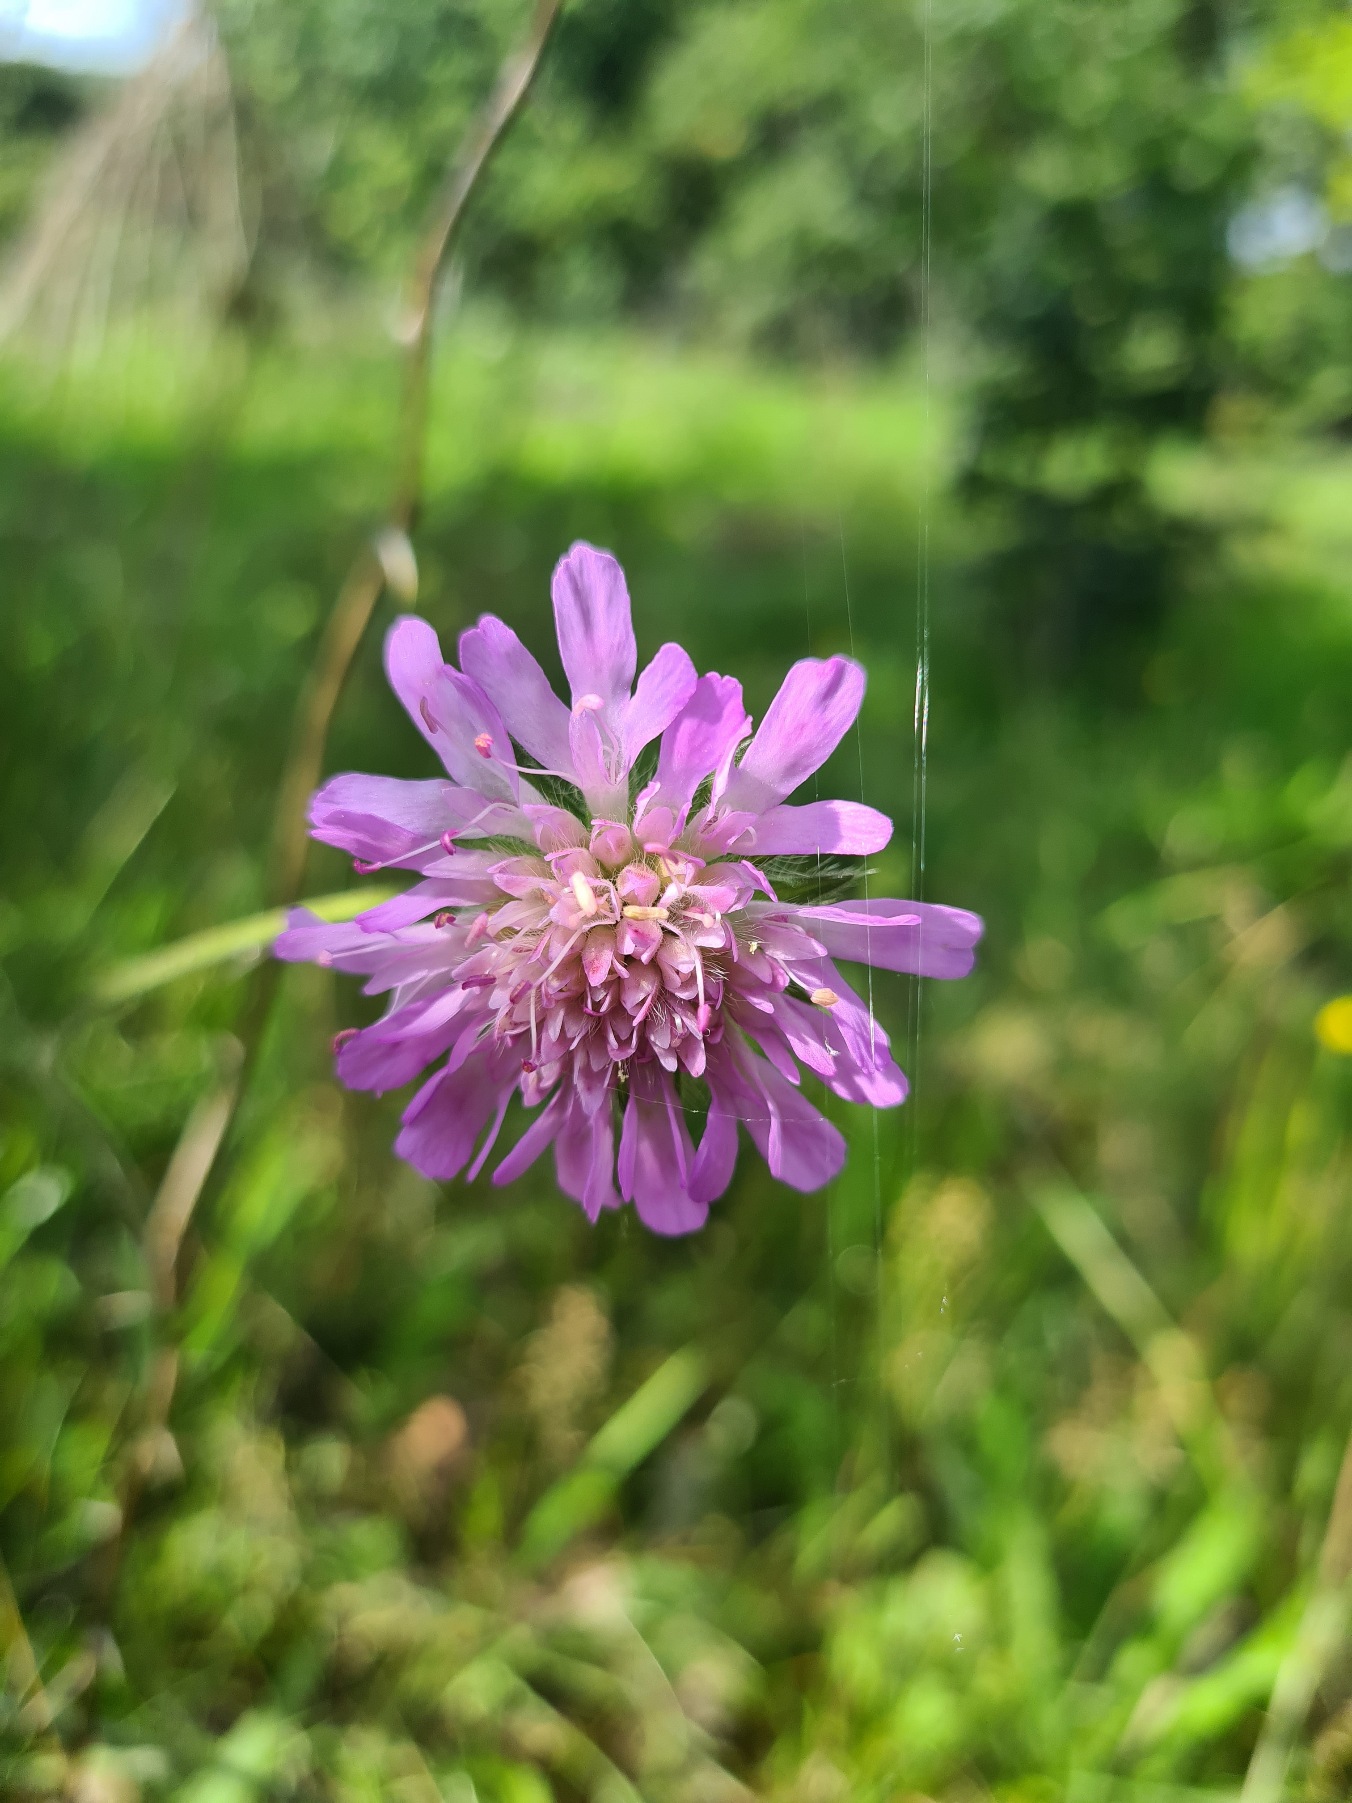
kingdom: Plantae
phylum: Tracheophyta
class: Magnoliopsida
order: Dipsacales
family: Caprifoliaceae
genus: Knautia
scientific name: Knautia arvensis
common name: Blåhat
